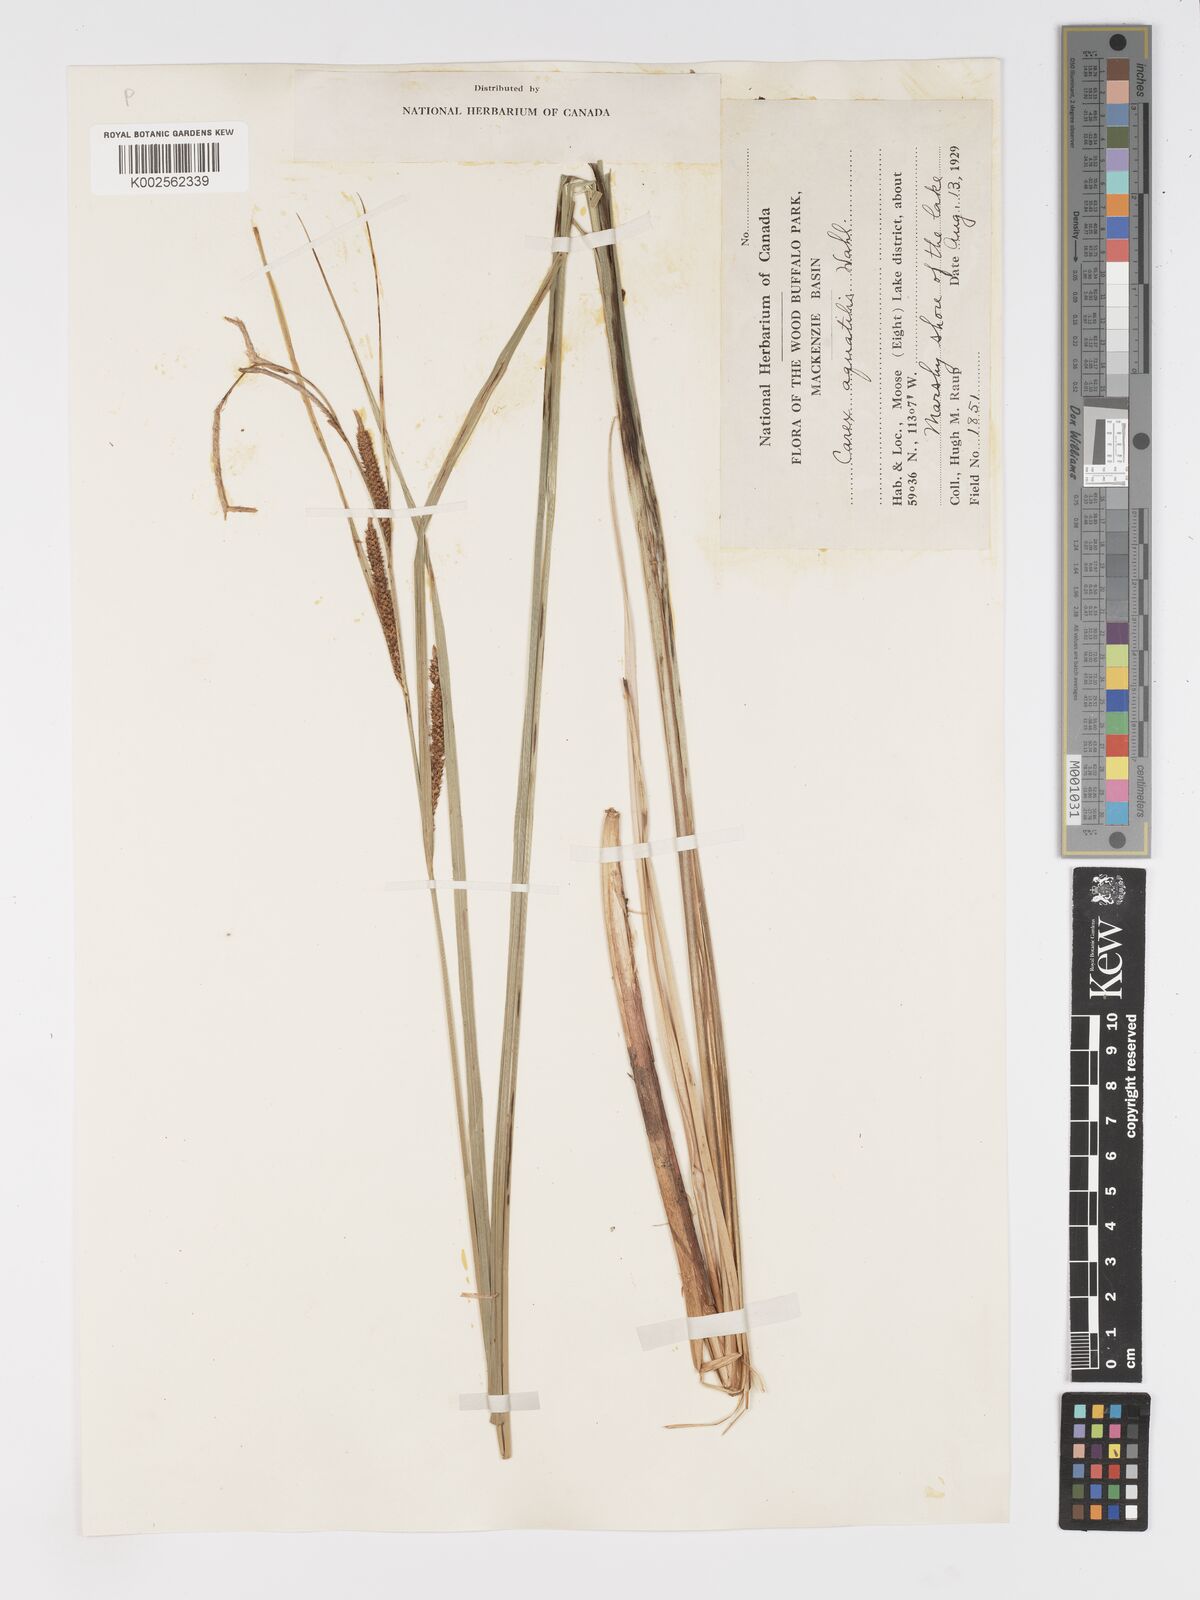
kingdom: Plantae
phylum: Tracheophyta
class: Liliopsida
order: Poales
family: Cyperaceae
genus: Carex
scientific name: Carex aquatilis
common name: Water sedge
